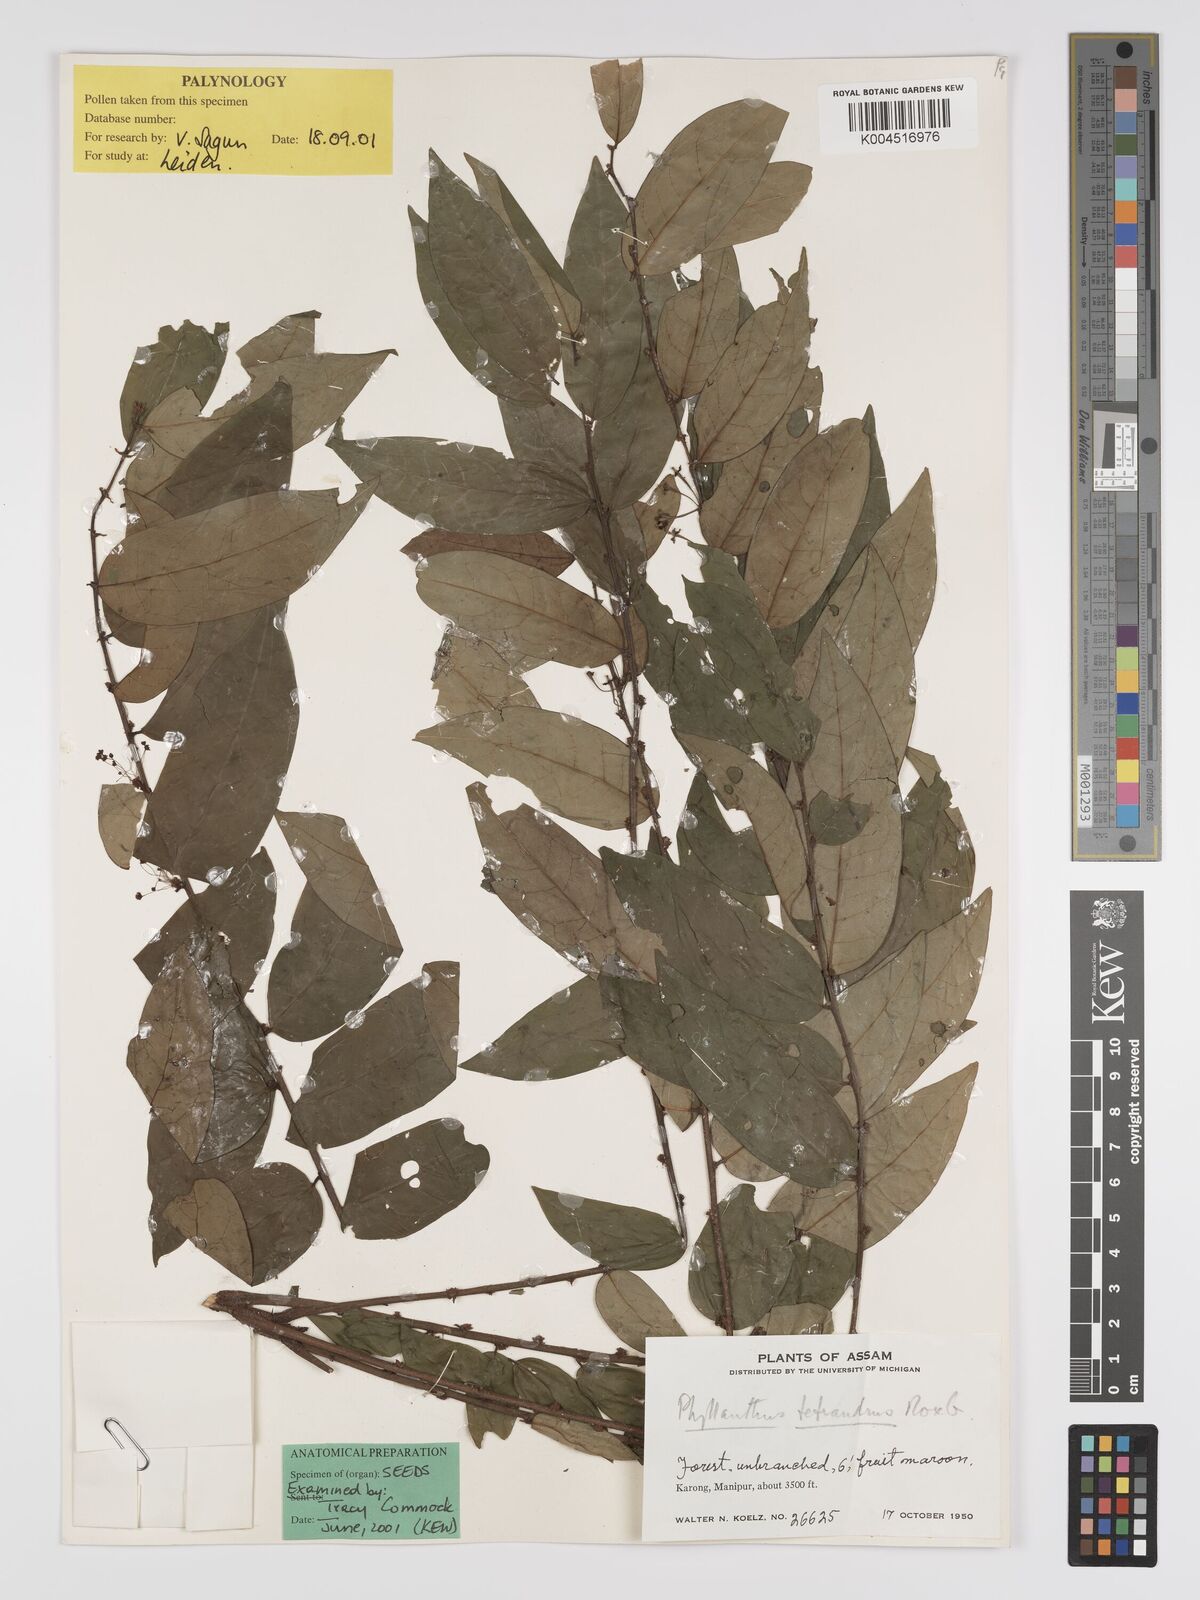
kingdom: Plantae
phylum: Tracheophyta
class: Magnoliopsida
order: Malpighiales
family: Phyllanthaceae
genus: Phyllanthus
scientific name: Phyllanthus tetrandrus
